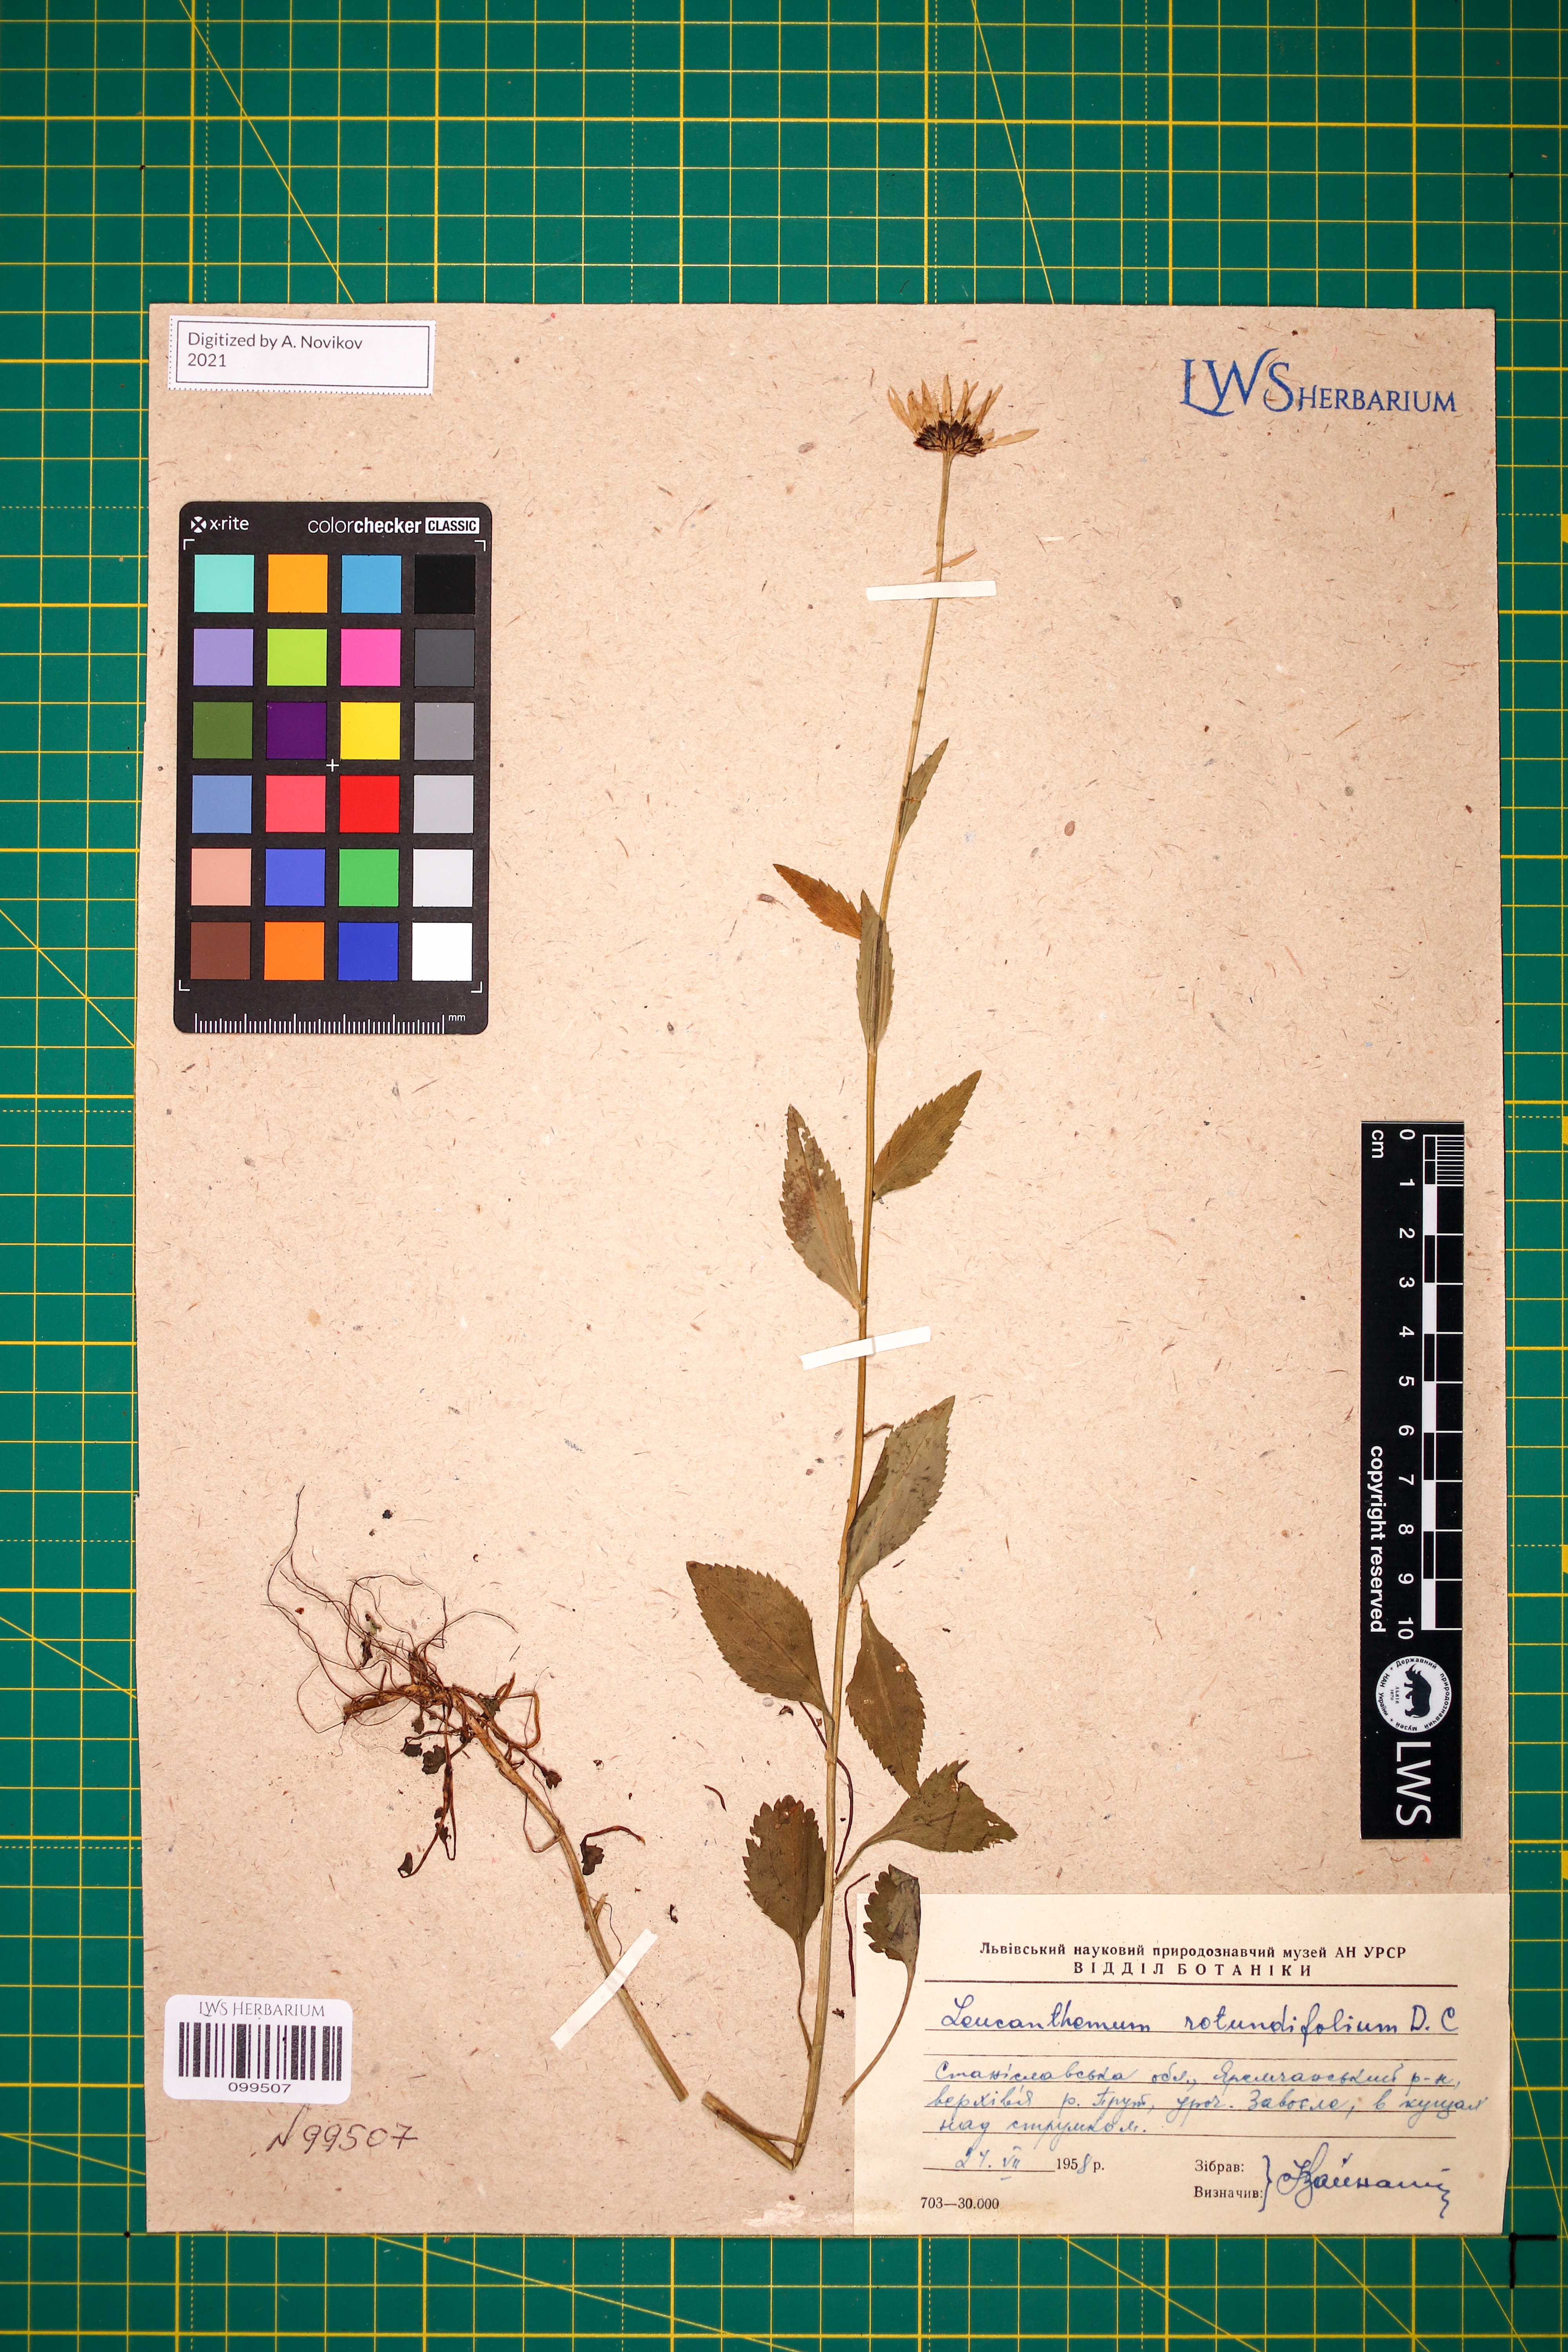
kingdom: Plantae
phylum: Tracheophyta
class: Magnoliopsida
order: Asterales
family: Asteraceae
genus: Leucanthemum
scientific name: Leucanthemum rotundifolium
